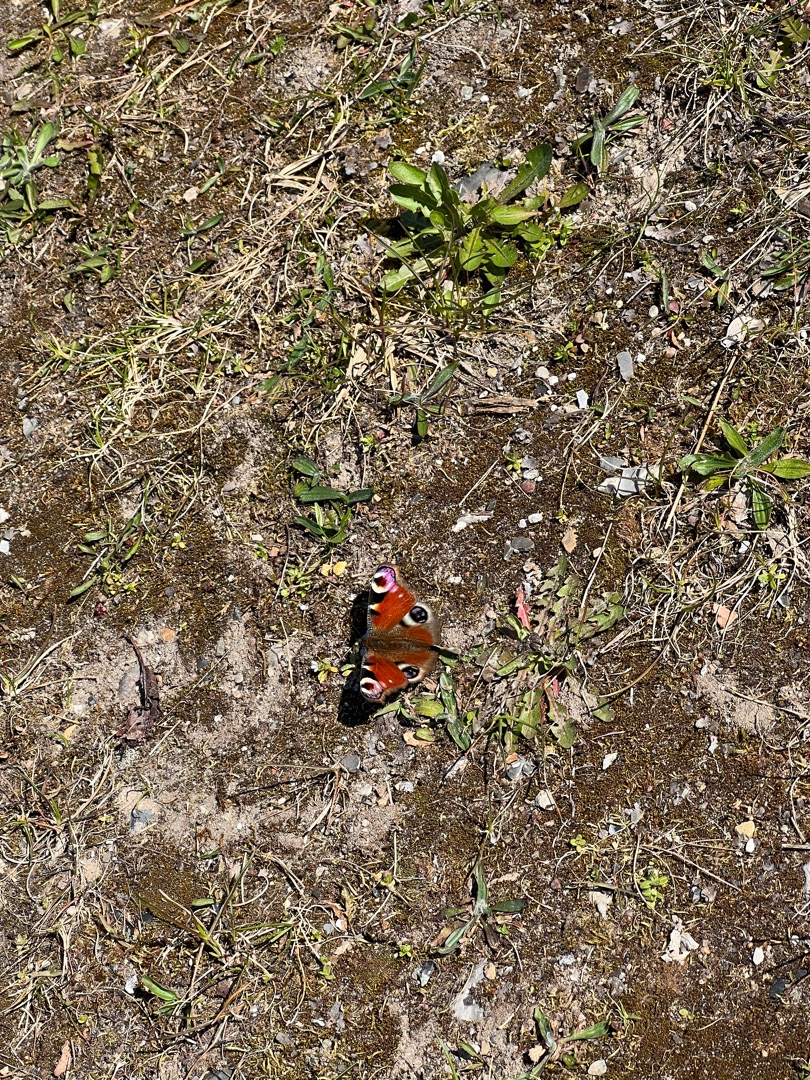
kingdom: Animalia
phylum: Arthropoda
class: Insecta
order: Lepidoptera
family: Nymphalidae
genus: Aglais
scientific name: Aglais io
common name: Dagpåfugleøje
